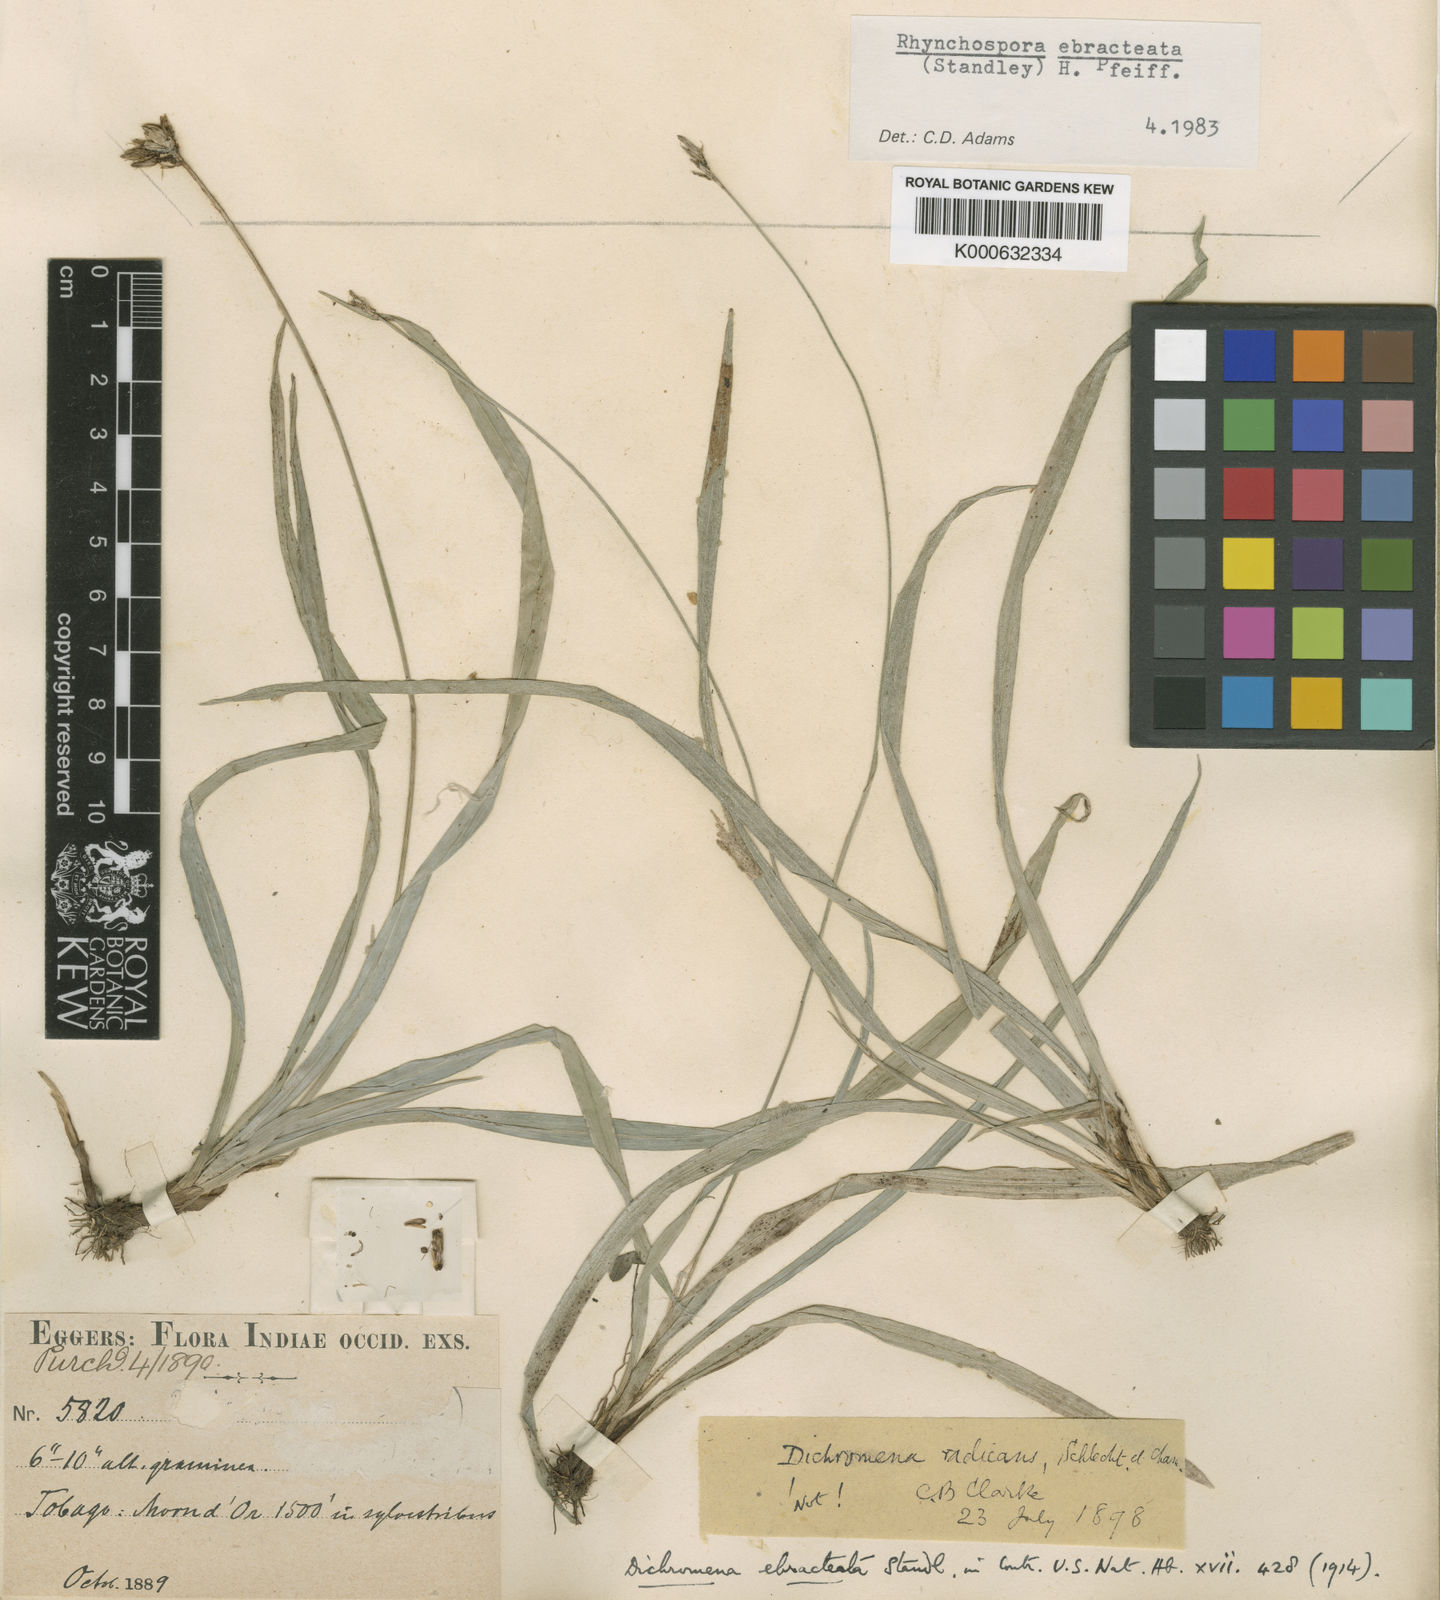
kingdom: Plantae
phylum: Tracheophyta
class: Liliopsida
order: Poales
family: Cyperaceae
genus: Rhynchospora
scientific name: Rhynchospora ebracteata
